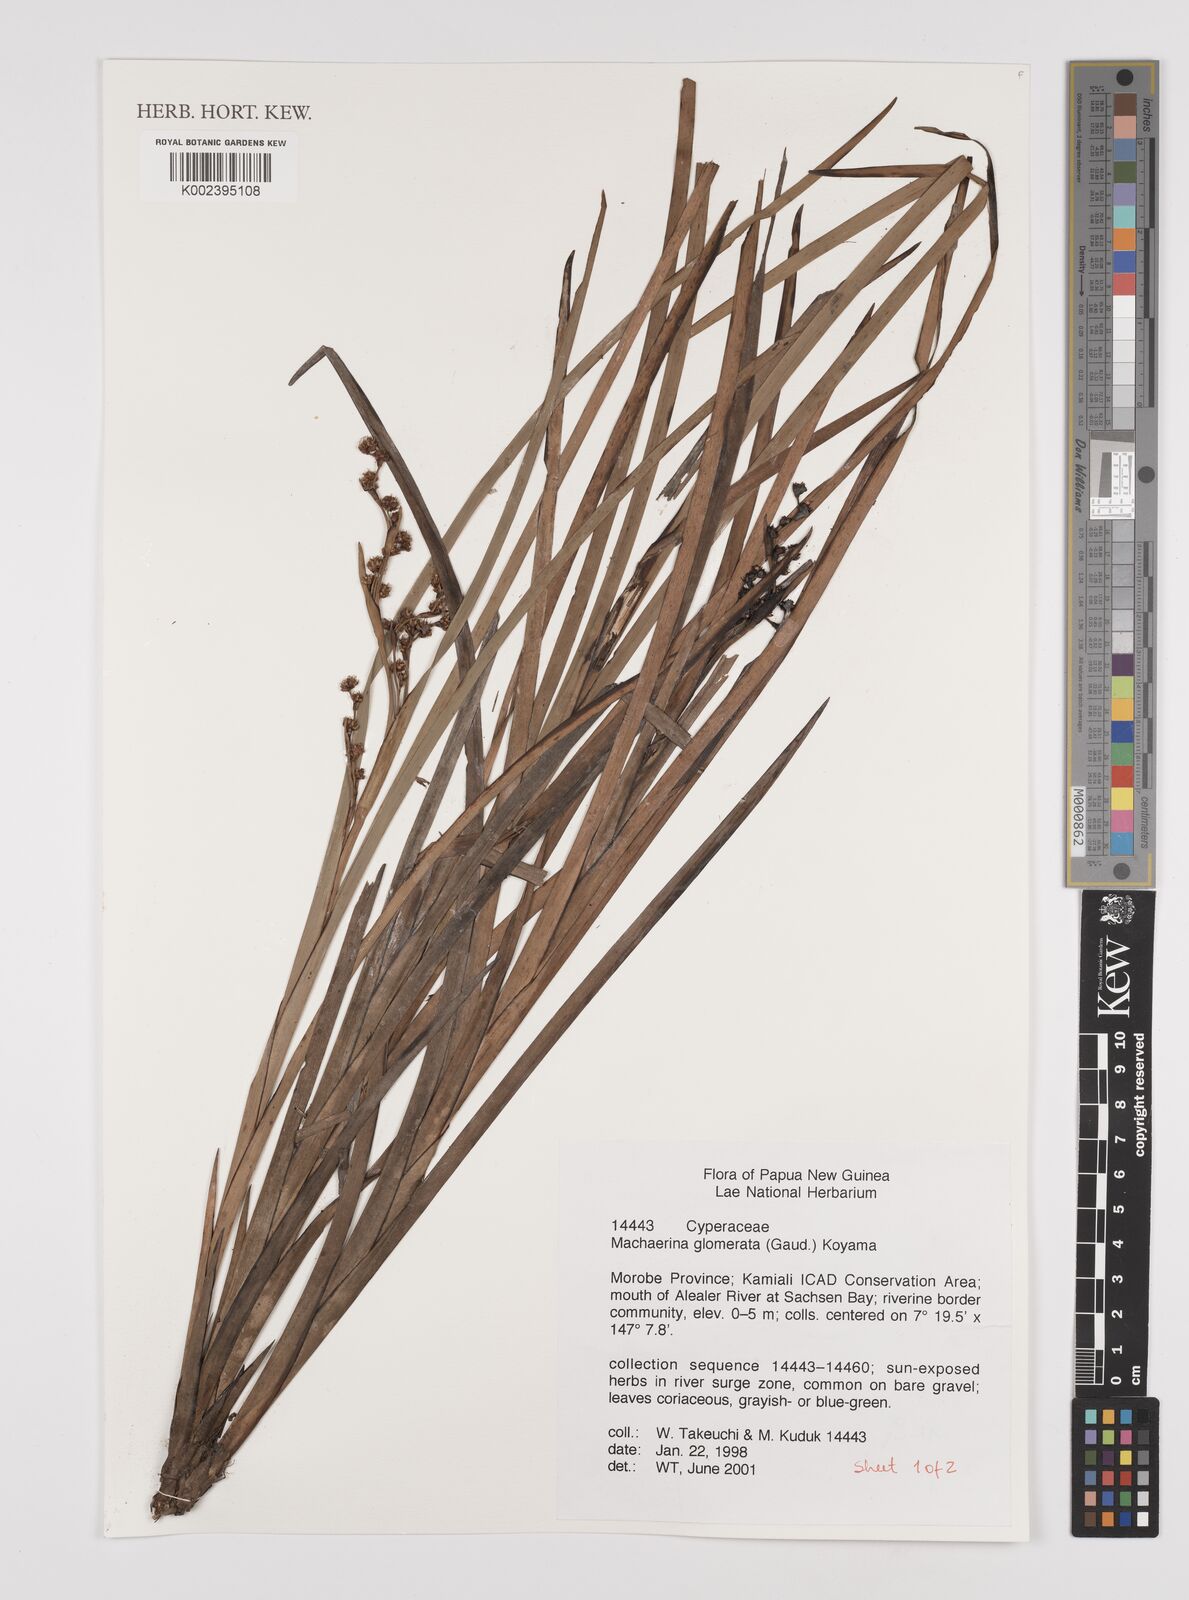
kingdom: Plantae
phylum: Tracheophyta
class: Liliopsida
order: Poales
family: Cyperaceae
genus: Machaerina
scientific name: Machaerina glomerata
